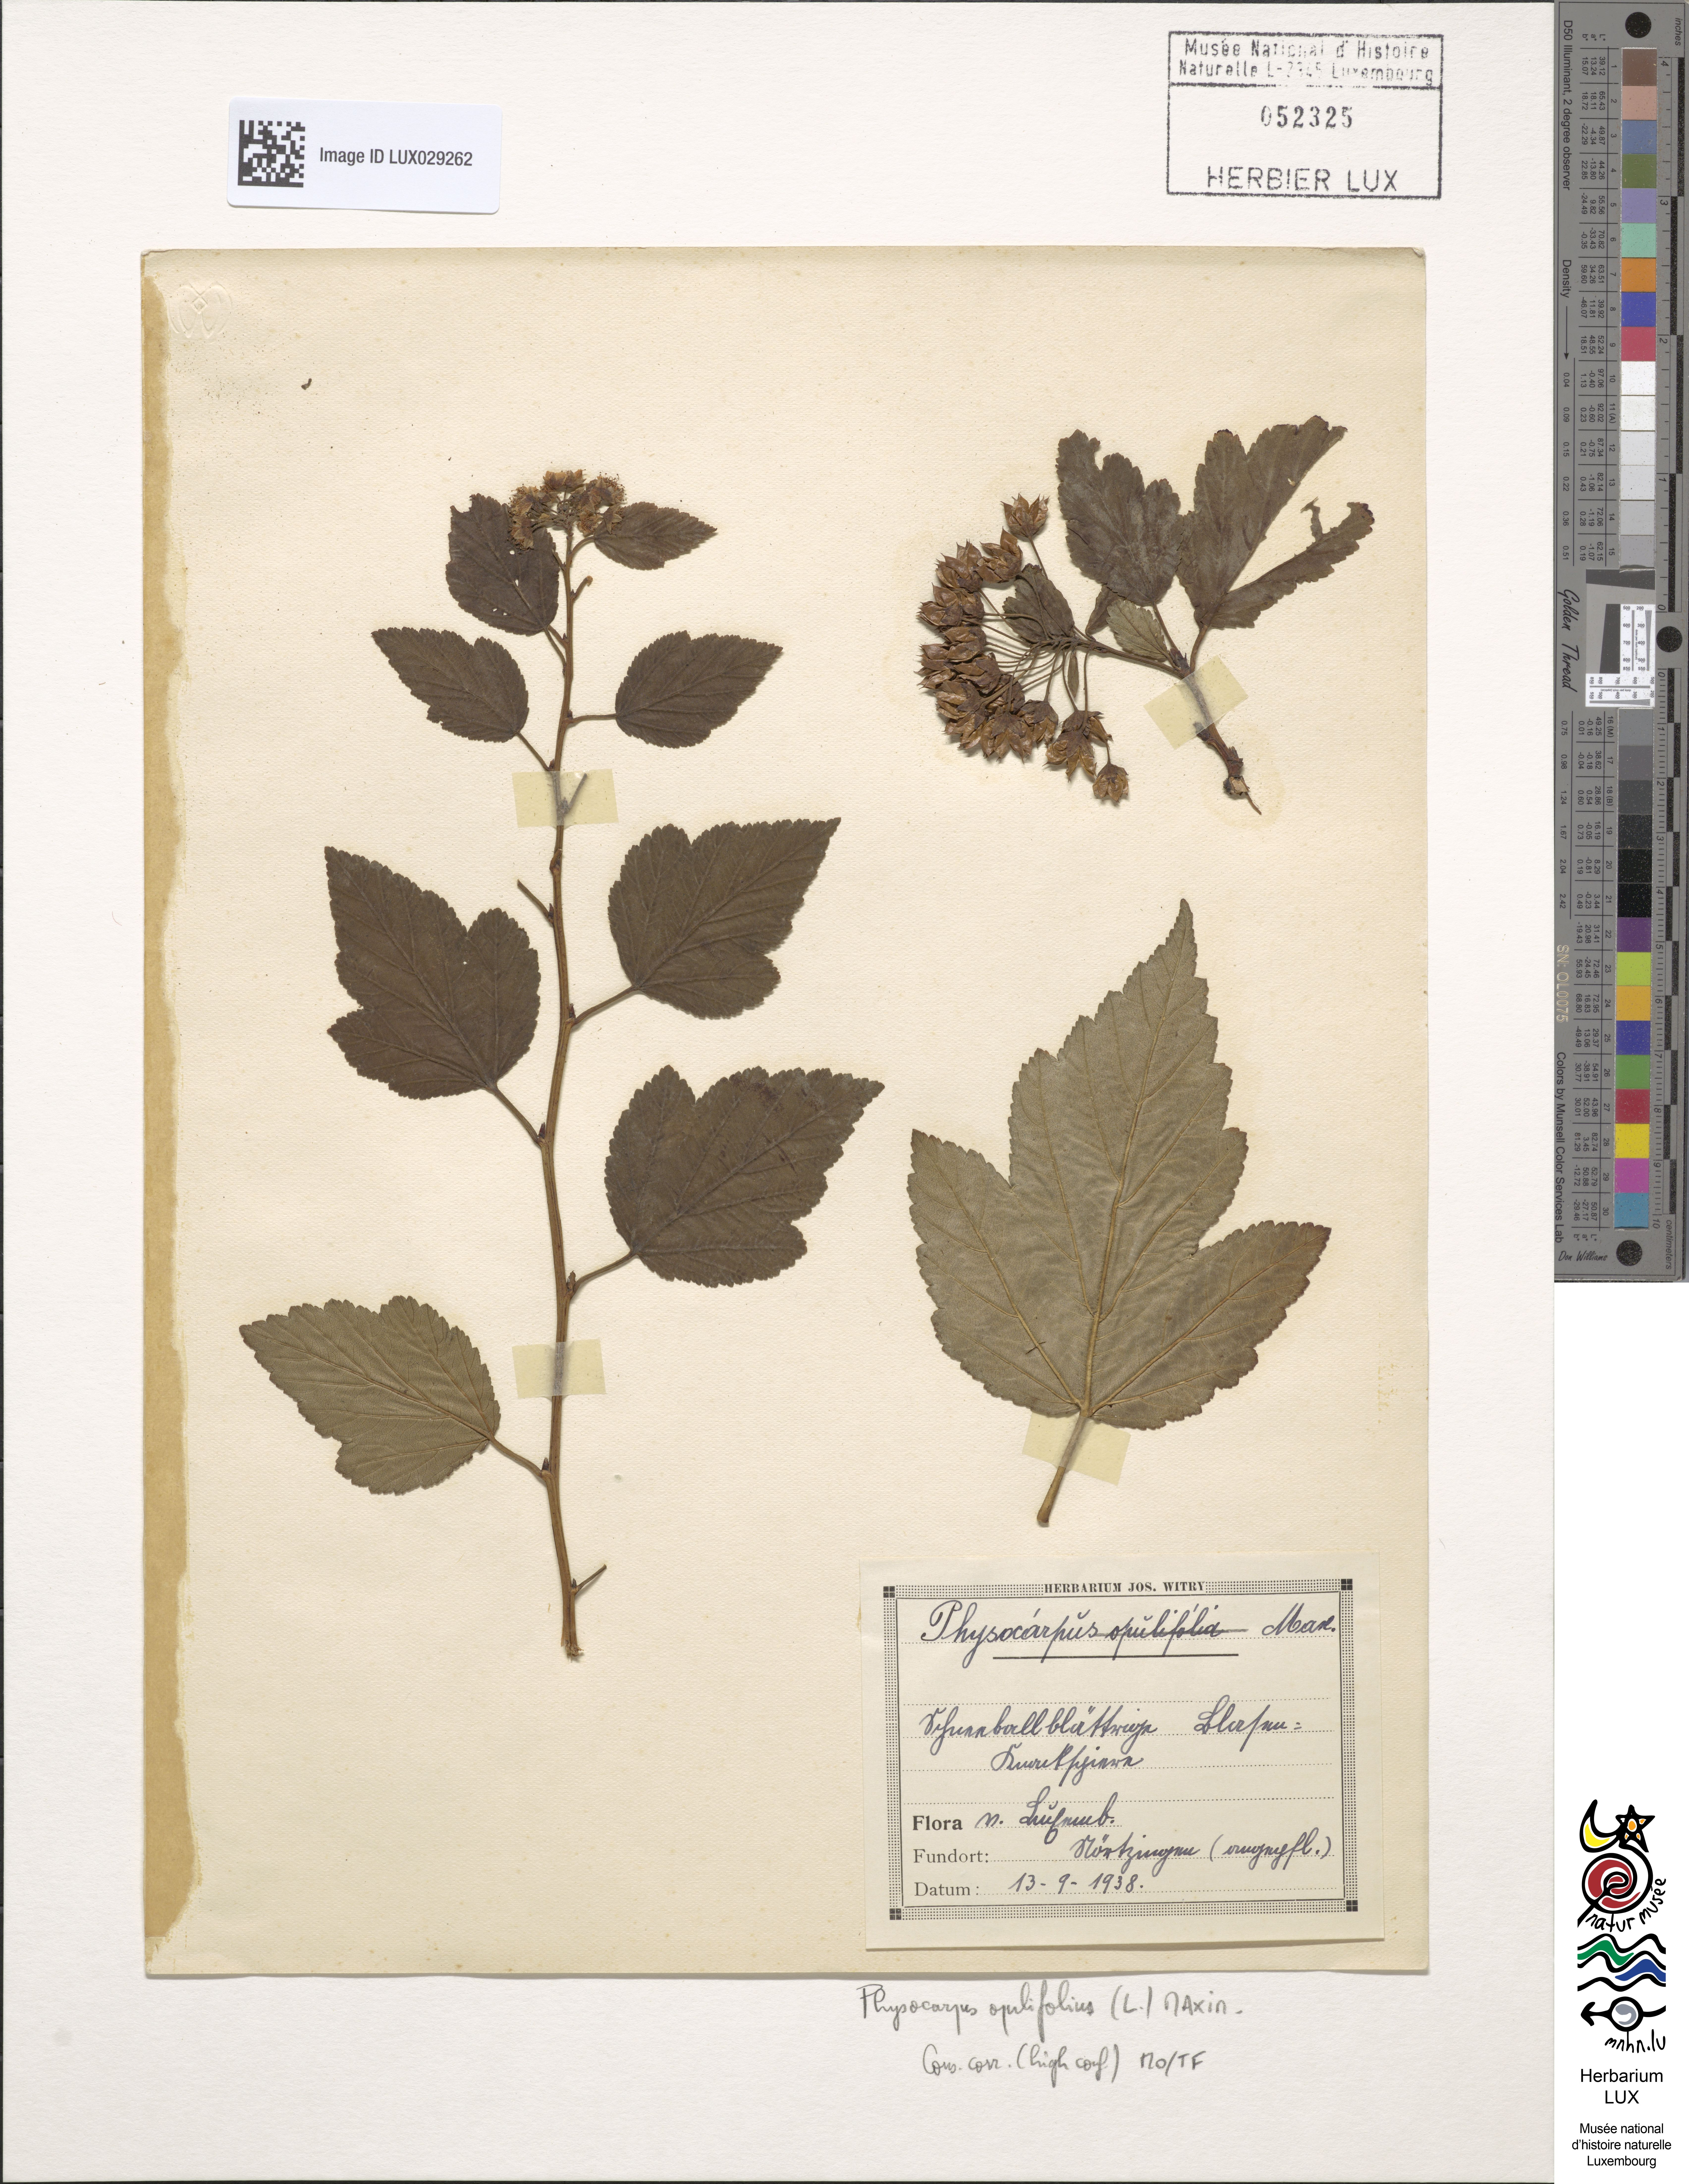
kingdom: Plantae
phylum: Tracheophyta
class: Magnoliopsida
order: Rosales
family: Rosaceae
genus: Physocarpus
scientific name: Physocarpus opulifolius
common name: Ninebark
